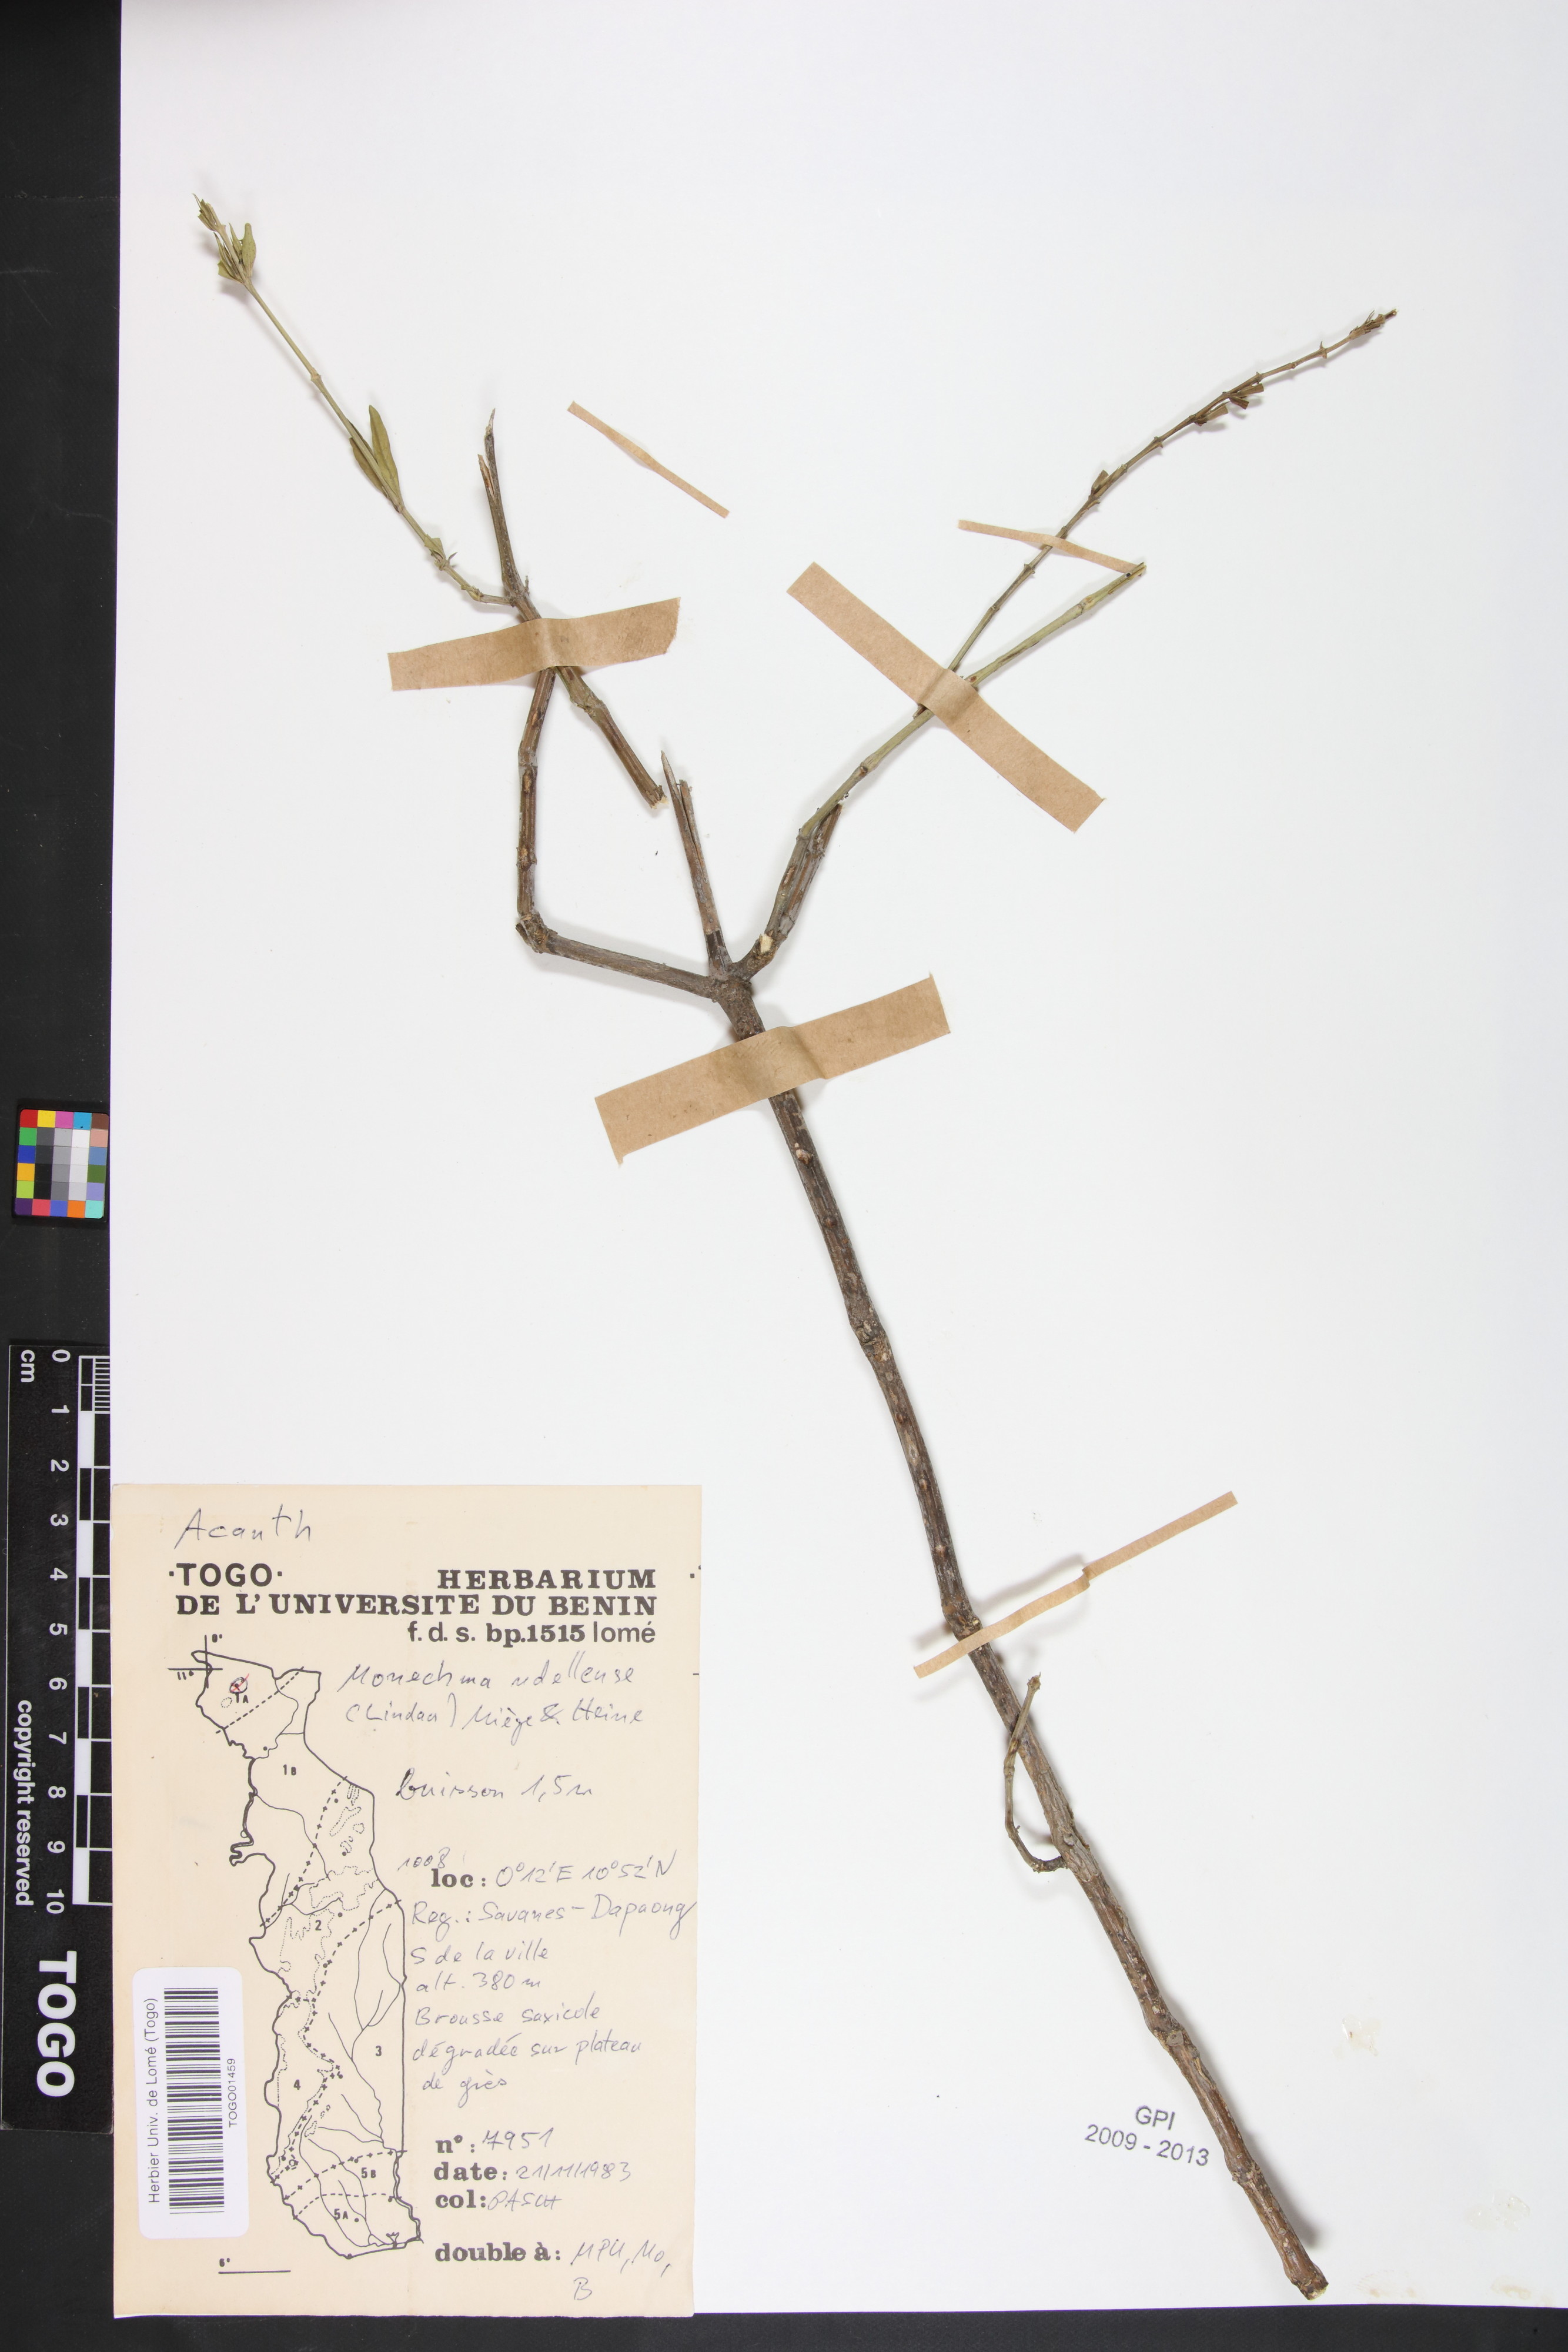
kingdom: Plantae
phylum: Tracheophyta
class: Magnoliopsida
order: Lamiales
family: Acanthaceae
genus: Monechma
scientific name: Monechma ndellense
